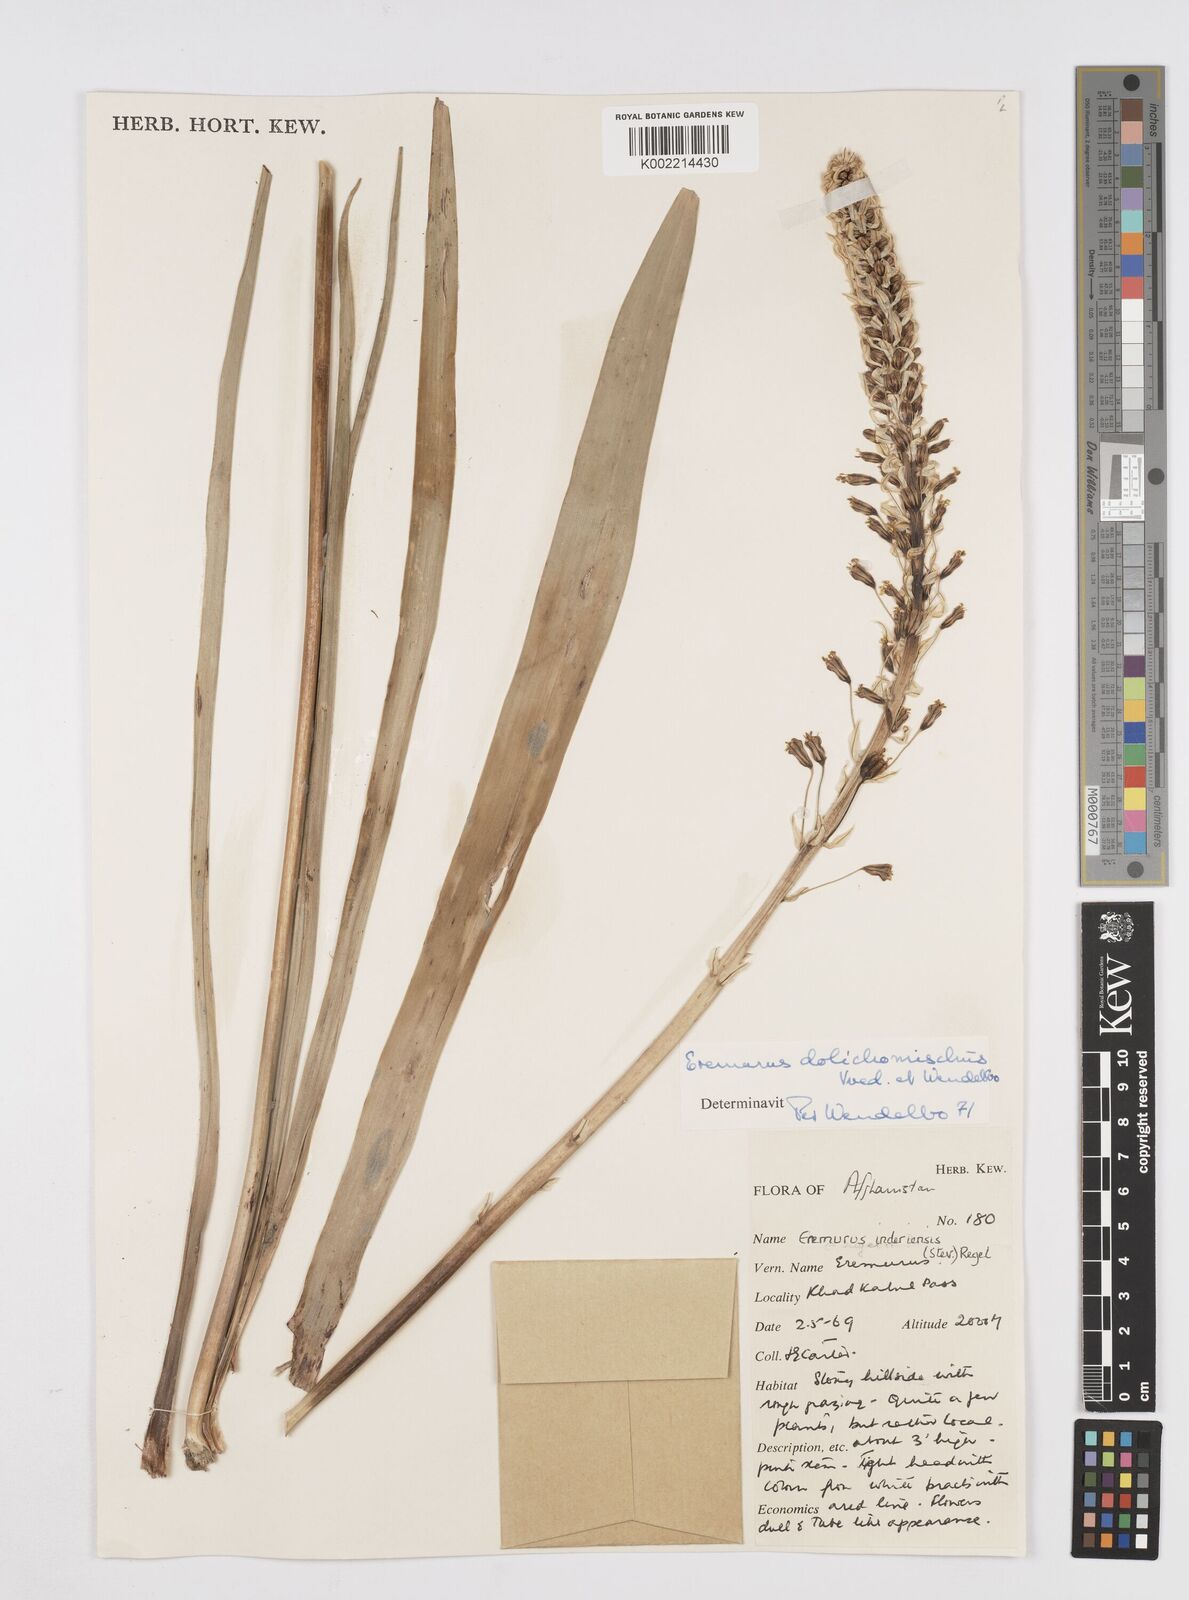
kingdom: Plantae
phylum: Tracheophyta
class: Liliopsida
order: Asparagales
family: Asphodelaceae
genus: Eremurus
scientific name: Eremurus dolichomischus
